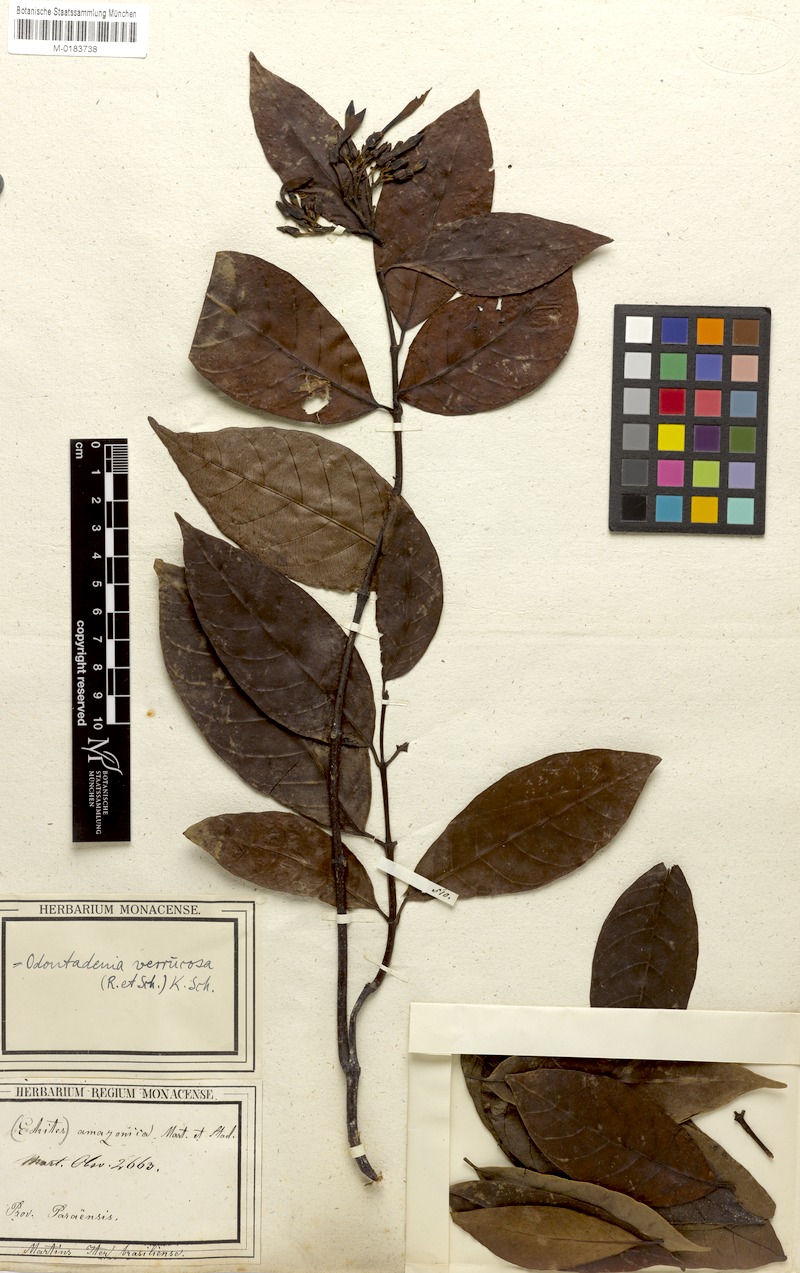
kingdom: Plantae
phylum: Tracheophyta
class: Magnoliopsida
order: Gentianales
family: Apocynaceae
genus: Odontadenia
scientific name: Odontadenia verrucosa
